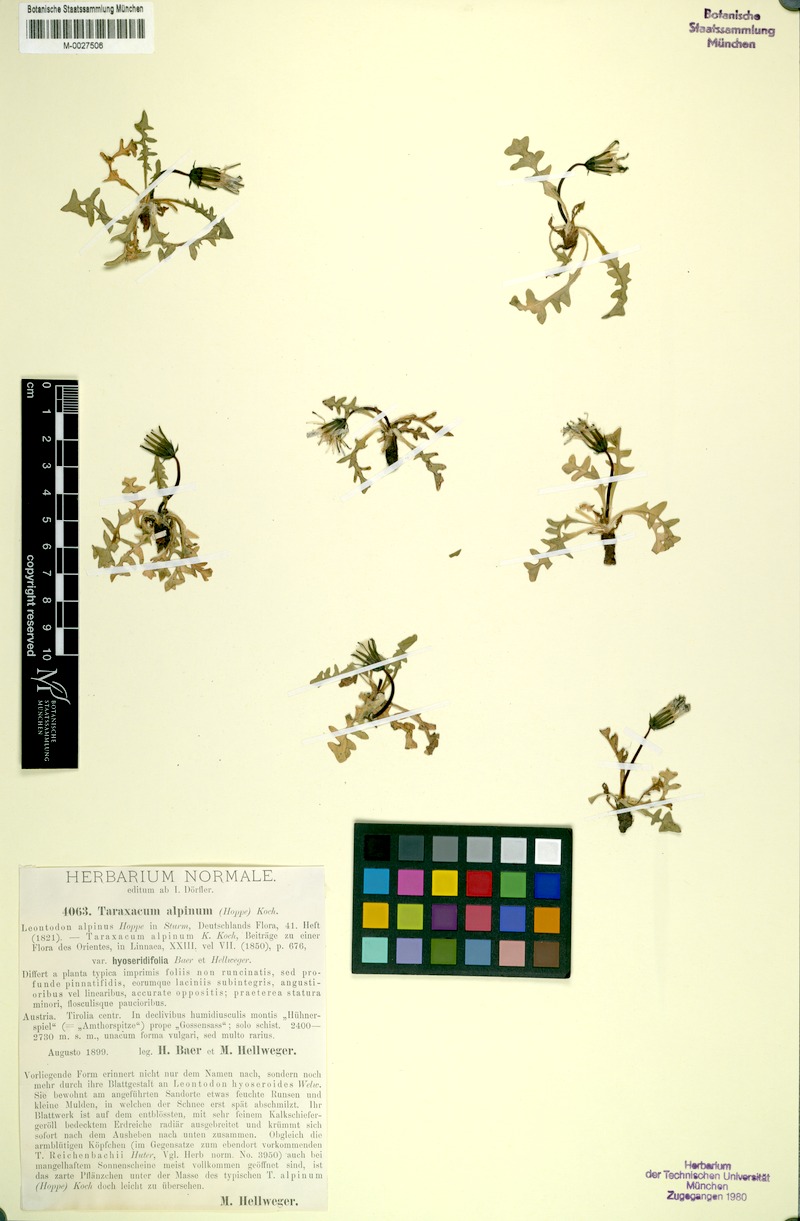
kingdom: Plantae
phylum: Tracheophyta
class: Magnoliopsida
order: Asterales
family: Asteraceae
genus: Taraxacum
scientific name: Taraxacum venustum
